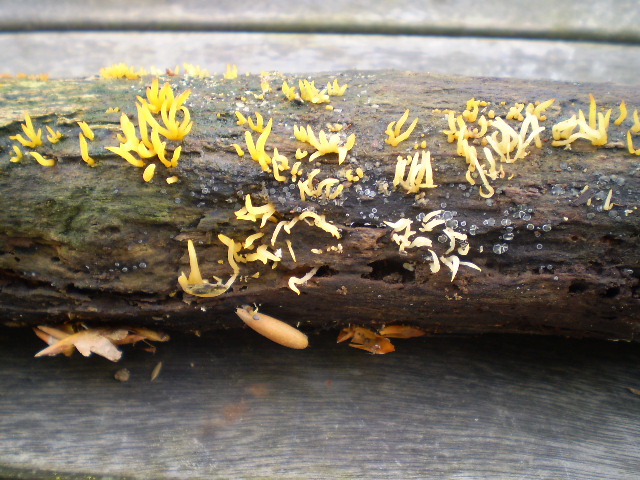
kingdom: Fungi
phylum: Basidiomycota
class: Dacrymycetes
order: Dacrymycetales
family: Dacrymycetaceae
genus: Calocera
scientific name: Calocera cornea
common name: liden guldgaffel
